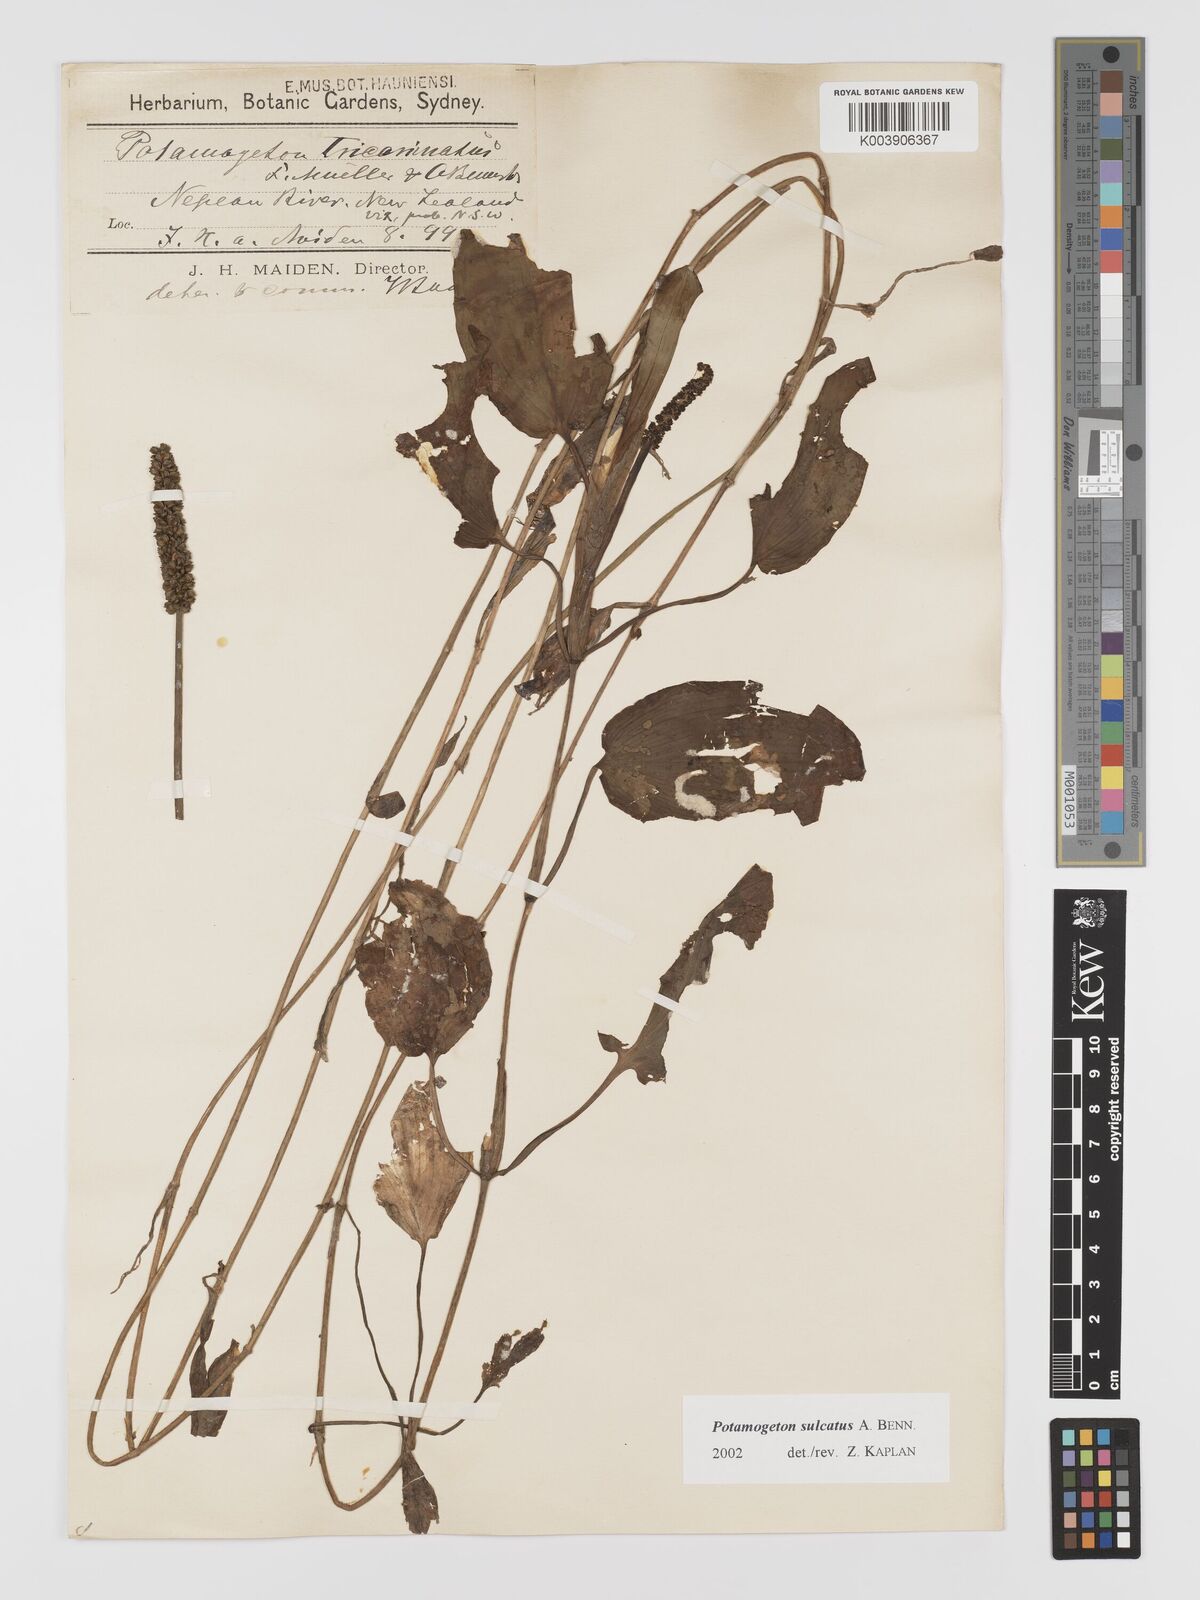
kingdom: Plantae
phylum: Tracheophyta
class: Liliopsida
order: Alismatales
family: Potamogetonaceae
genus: Potamogeton
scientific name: Potamogeton sulcatus
